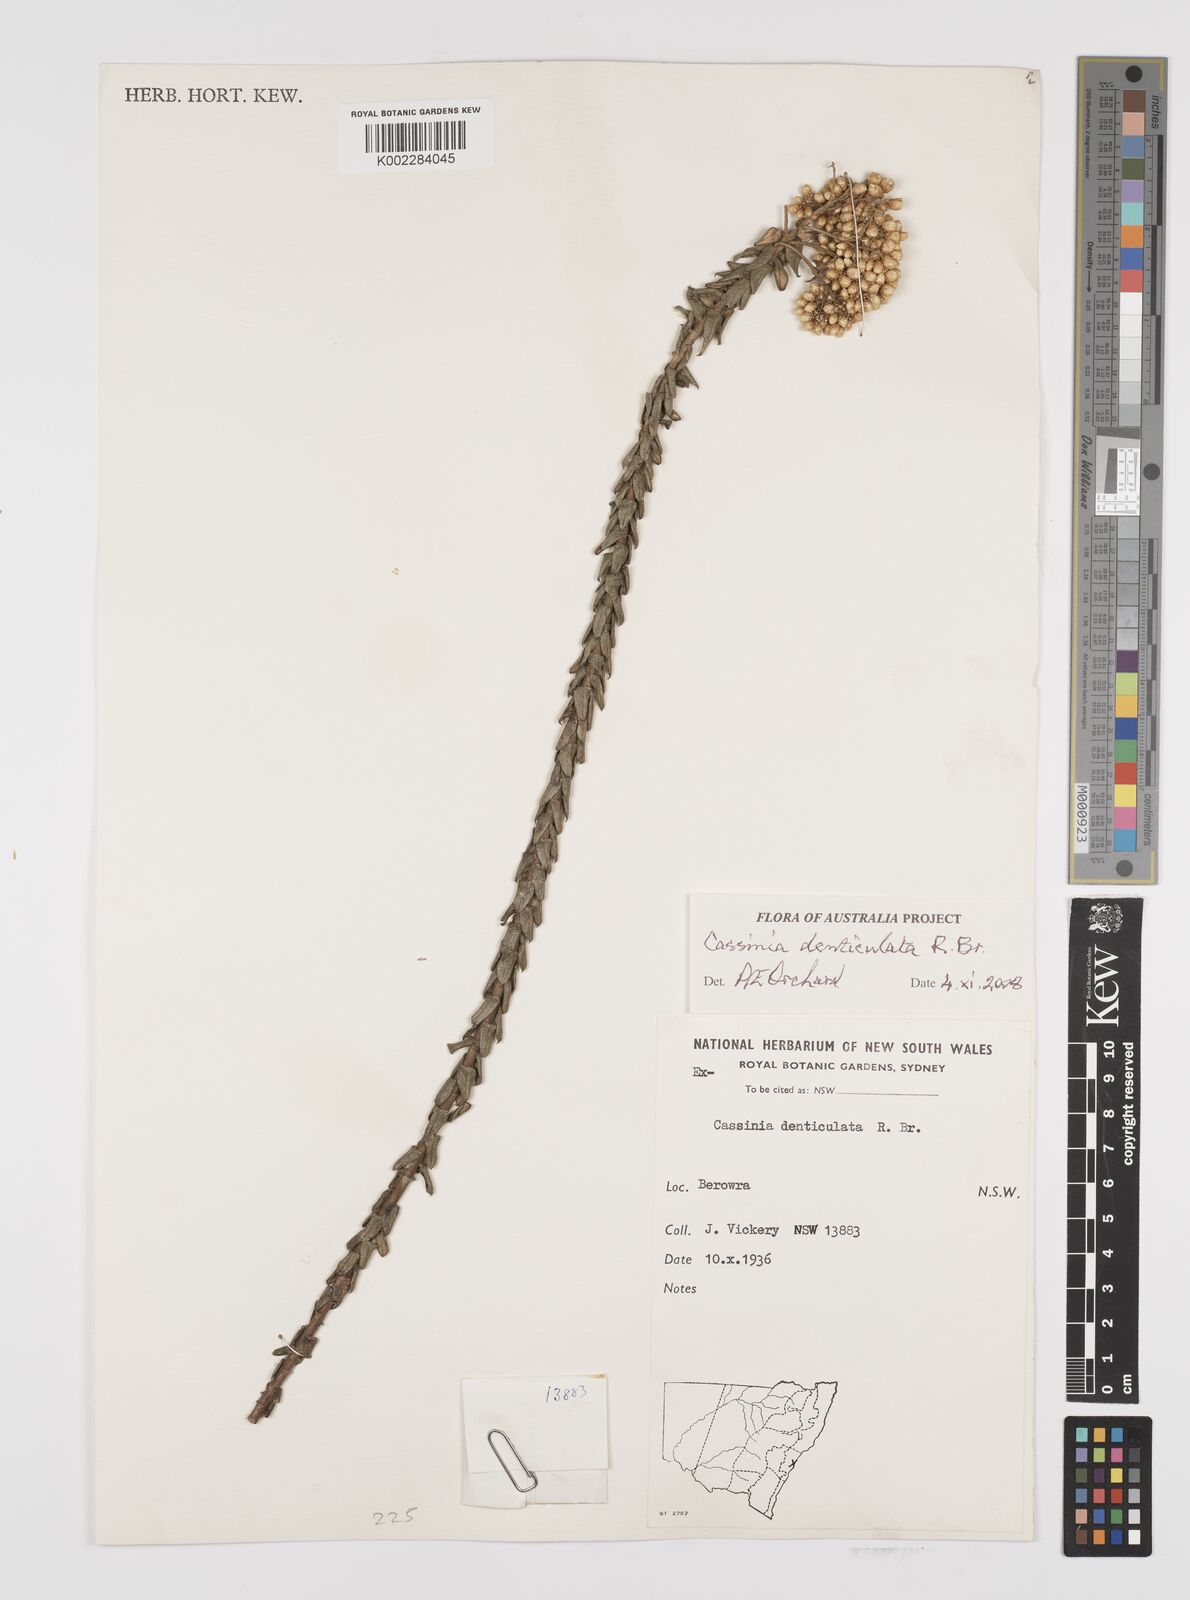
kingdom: Plantae
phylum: Tracheophyta
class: Magnoliopsida
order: Asterales
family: Asteraceae
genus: Cassinia
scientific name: Cassinia denticulata
